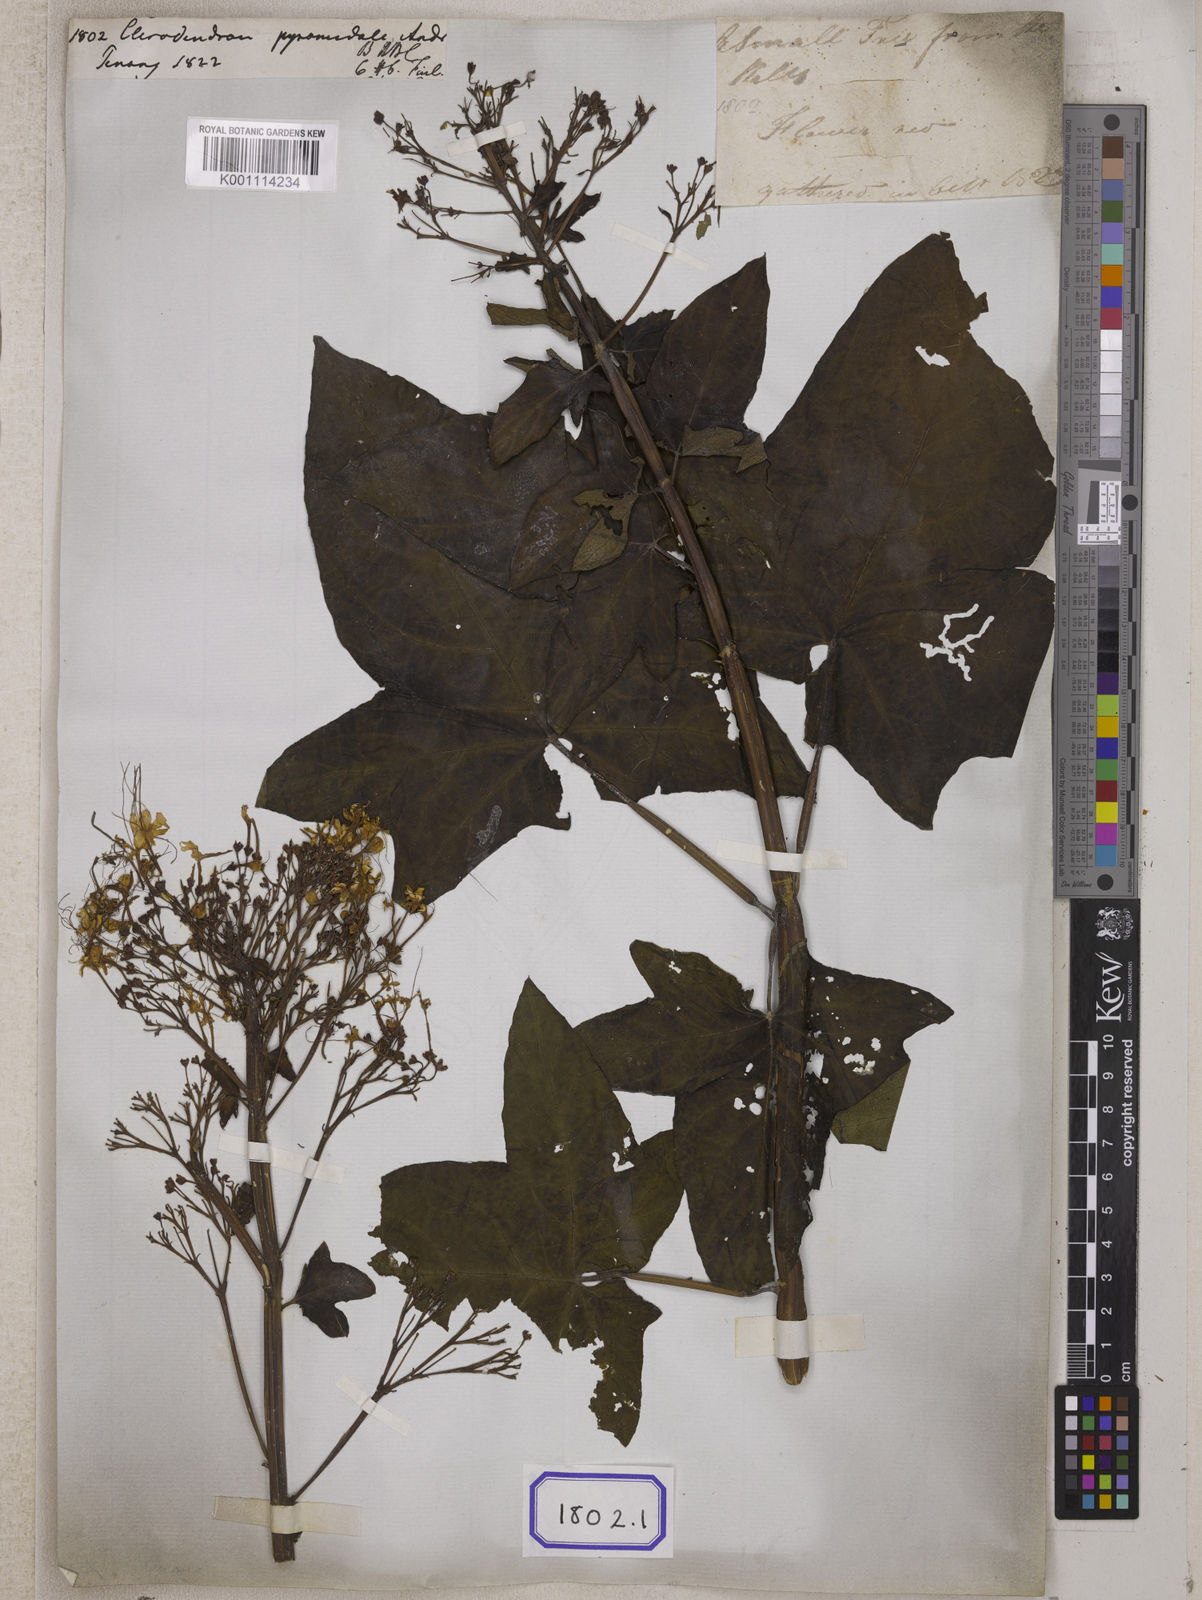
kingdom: Plantae
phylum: Tracheophyta
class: Magnoliopsida
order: Lamiales
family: Lamiaceae
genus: Clerodendrum
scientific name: Clerodendrum paniculatum
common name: Pagoda-flower
